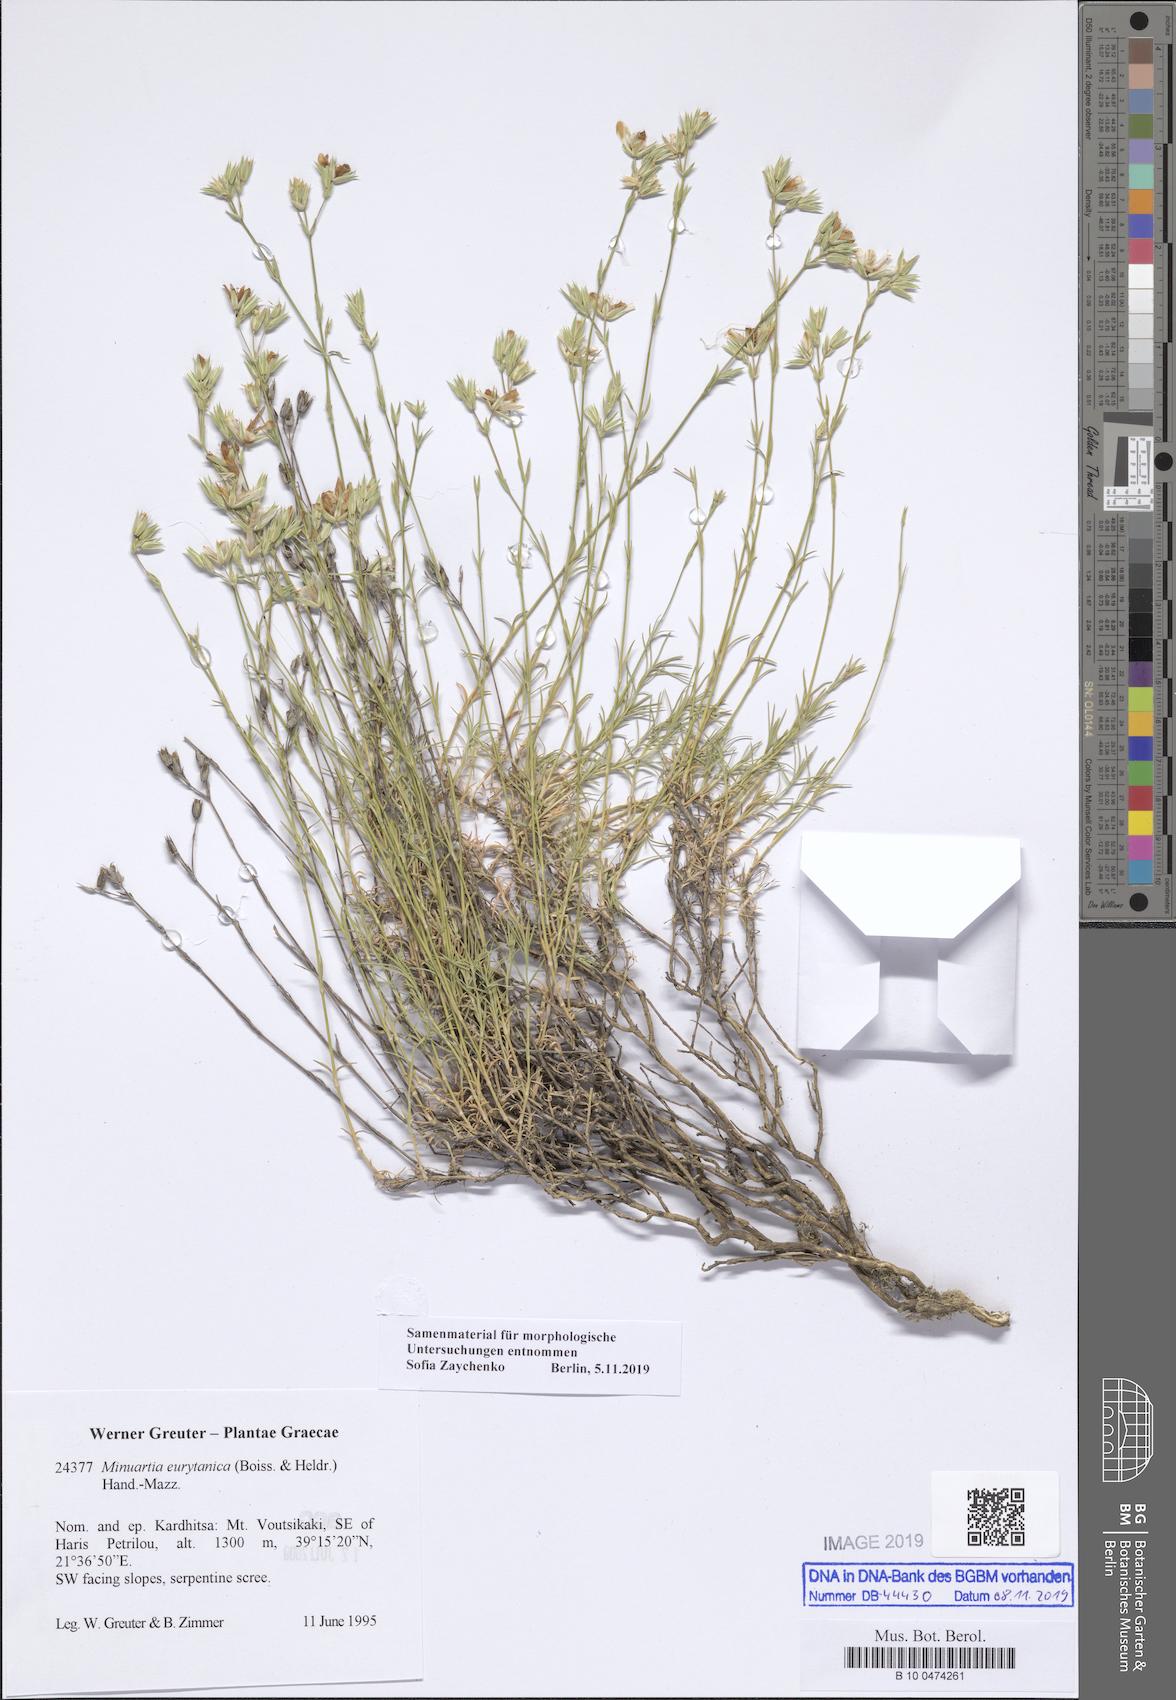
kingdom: Plantae
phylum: Tracheophyta
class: Magnoliopsida
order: Caryophyllales
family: Caryophyllaceae
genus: Minuartia
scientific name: Minuartia eurytanica
